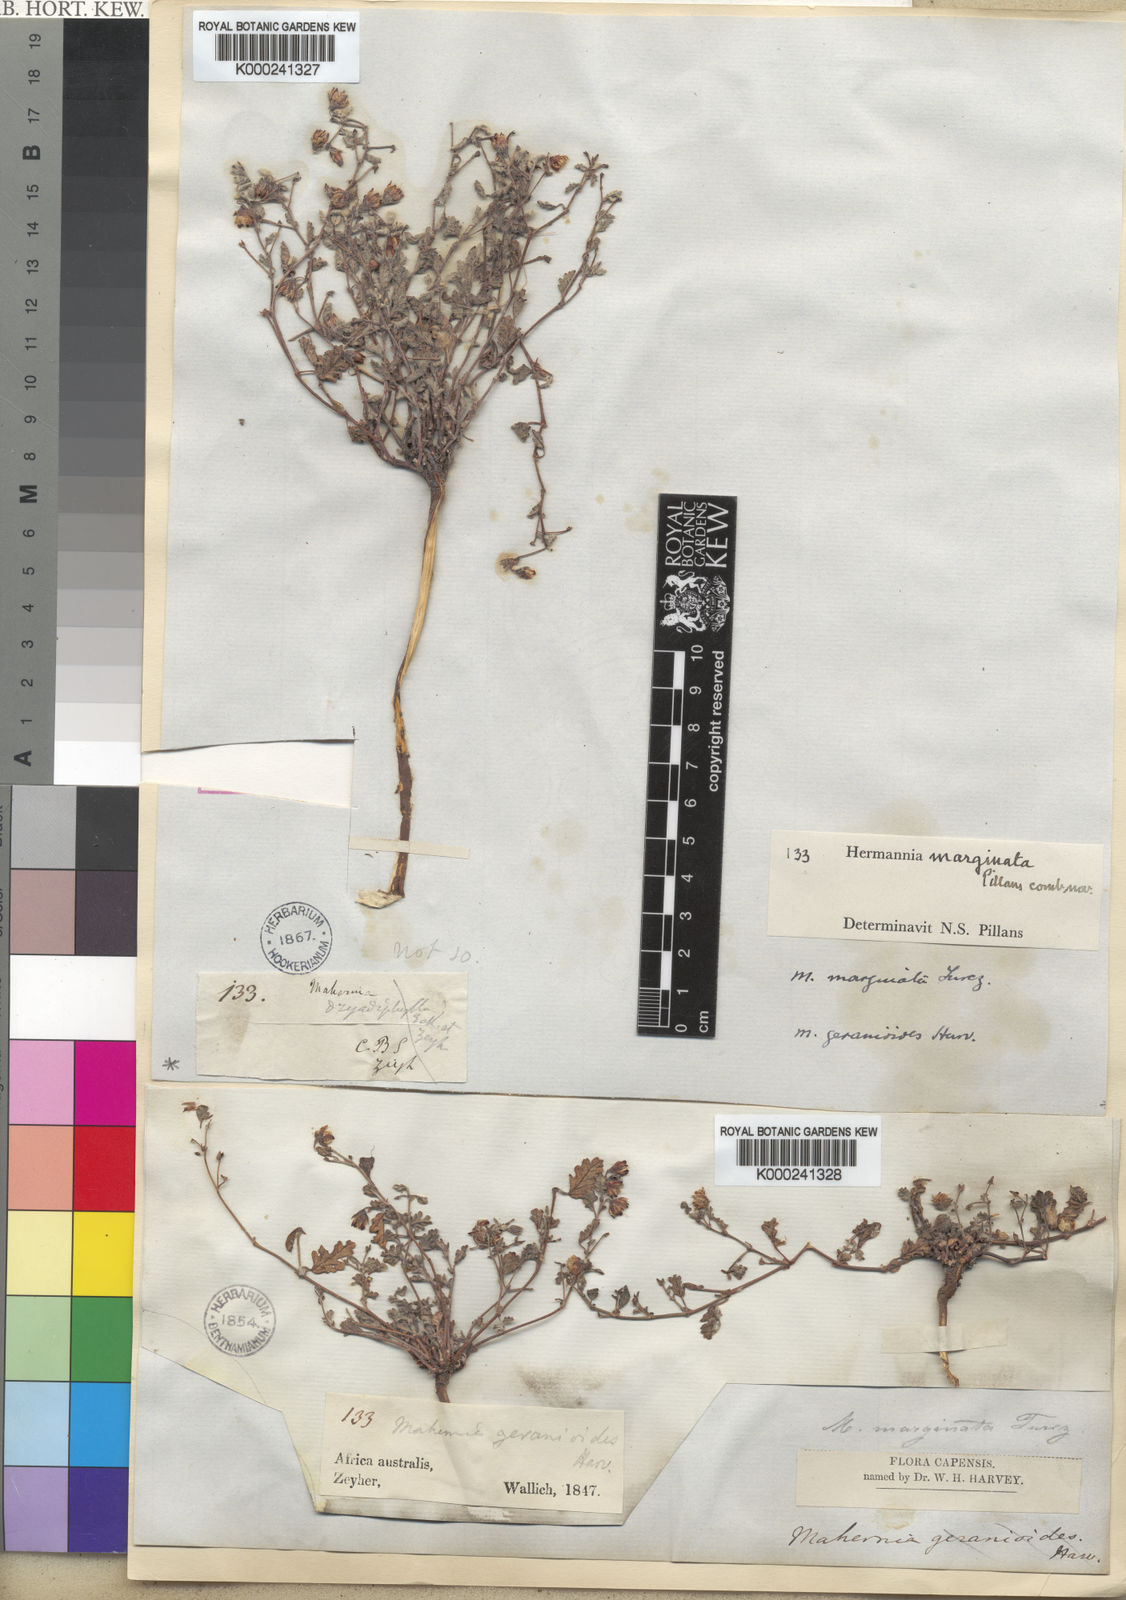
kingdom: Plantae
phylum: Tracheophyta
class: Magnoliopsida
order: Malvales
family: Malvaceae
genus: Hermannia
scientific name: Hermannia
